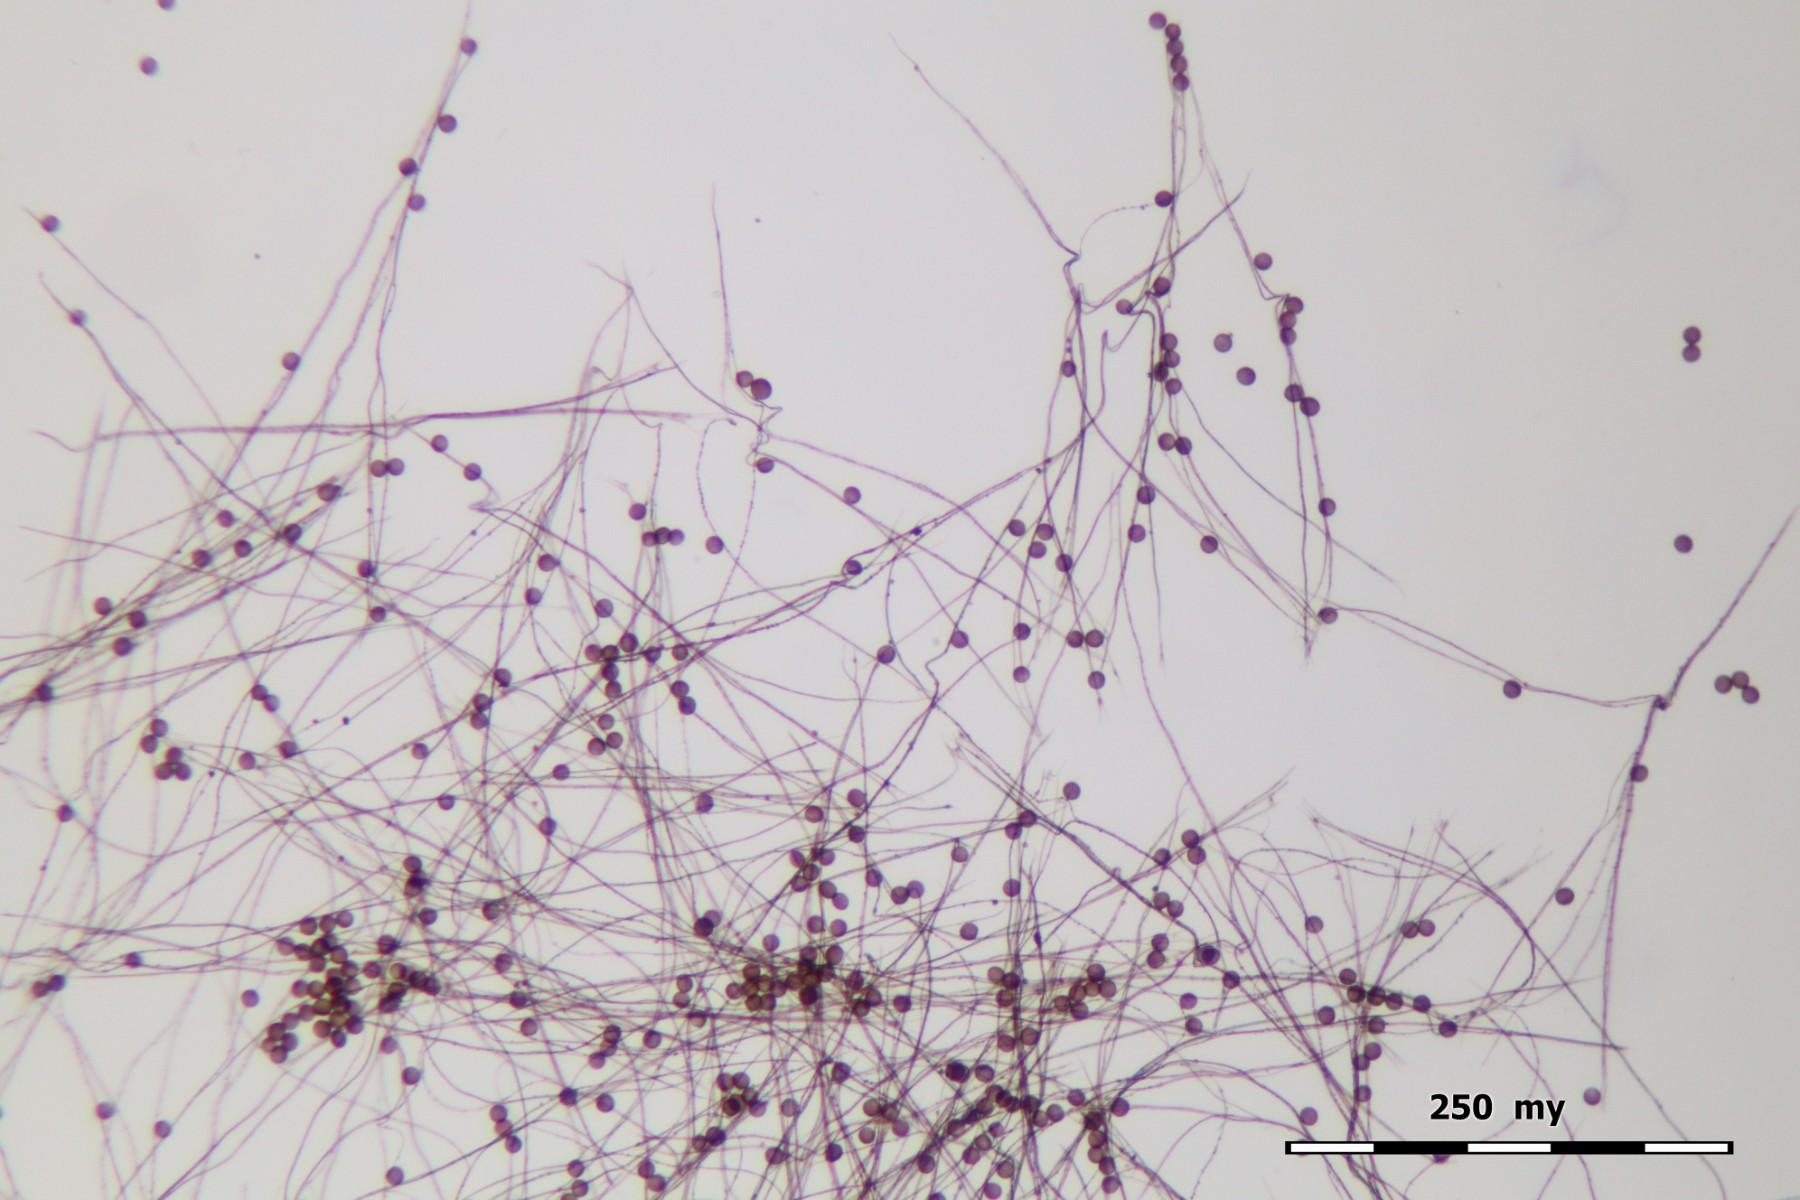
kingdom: Protozoa
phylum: Mycetozoa
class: Myxomycetes
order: Physarales
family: Didymiaceae
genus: Diderma
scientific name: Diderma radiatum
